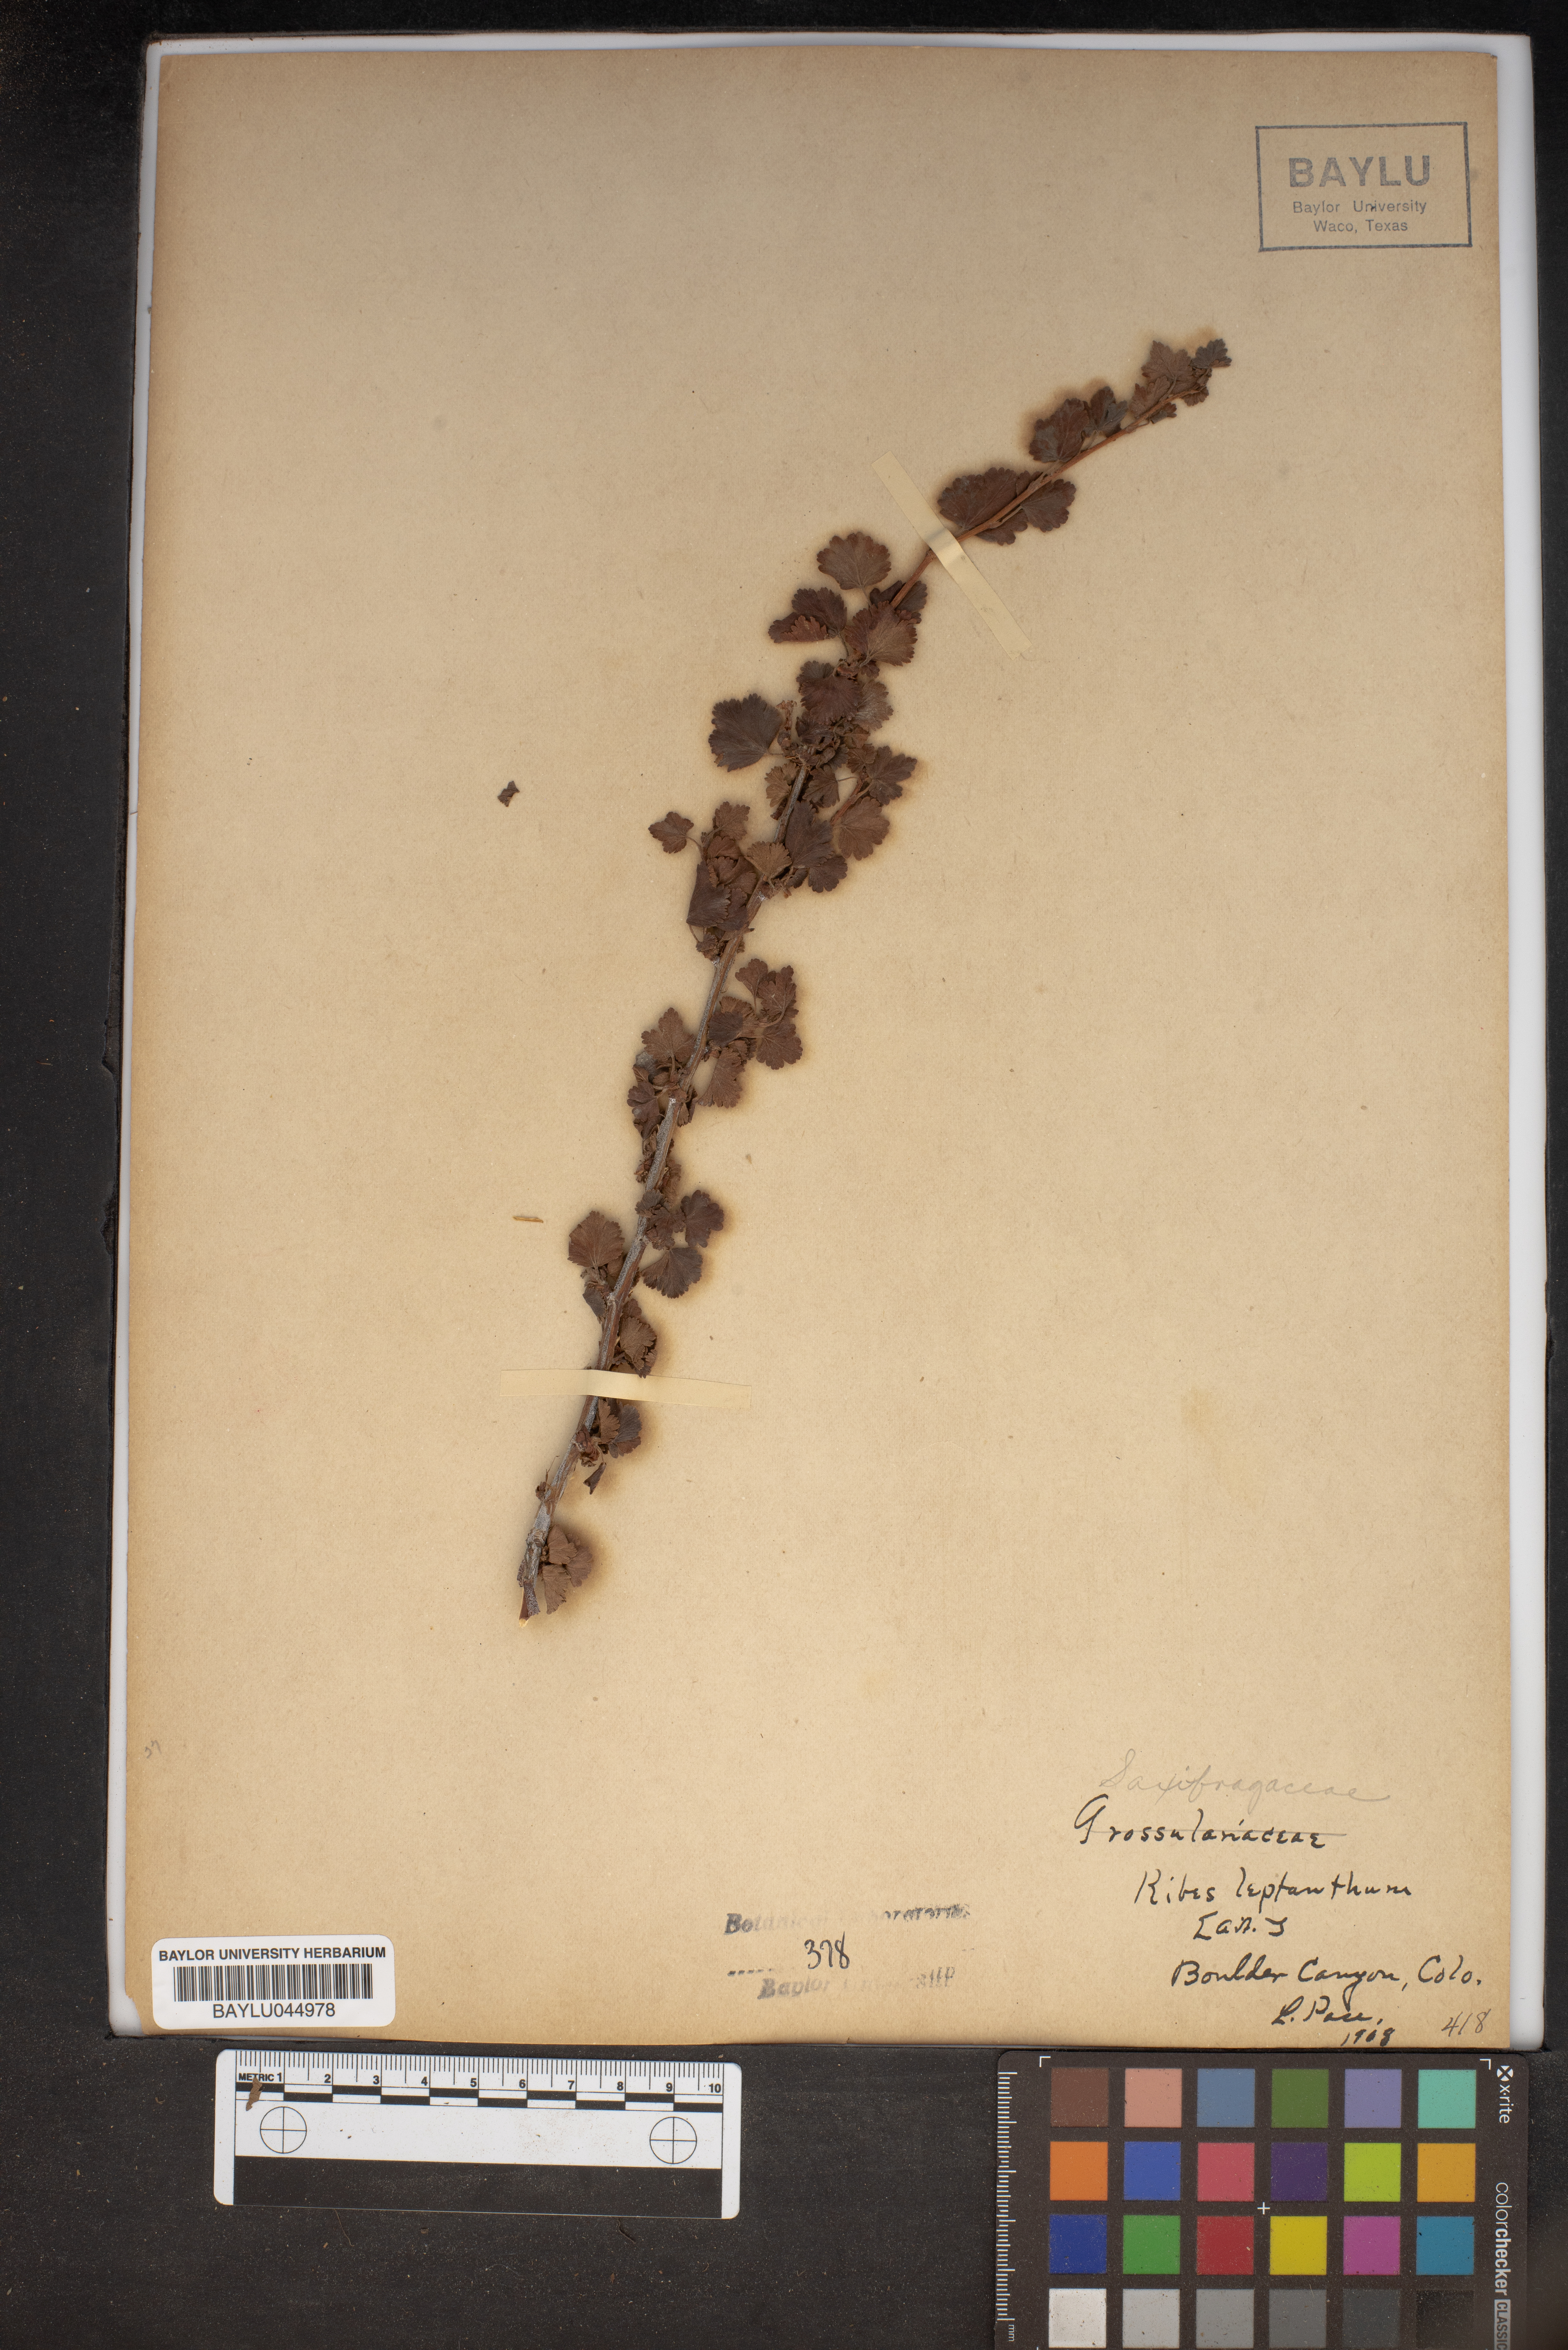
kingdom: Plantae
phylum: Tracheophyta
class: Magnoliopsida
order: Saxifragales
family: Grossulariaceae
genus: Ribes
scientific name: Ribes leptanthum
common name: Trumpet gooseberry
